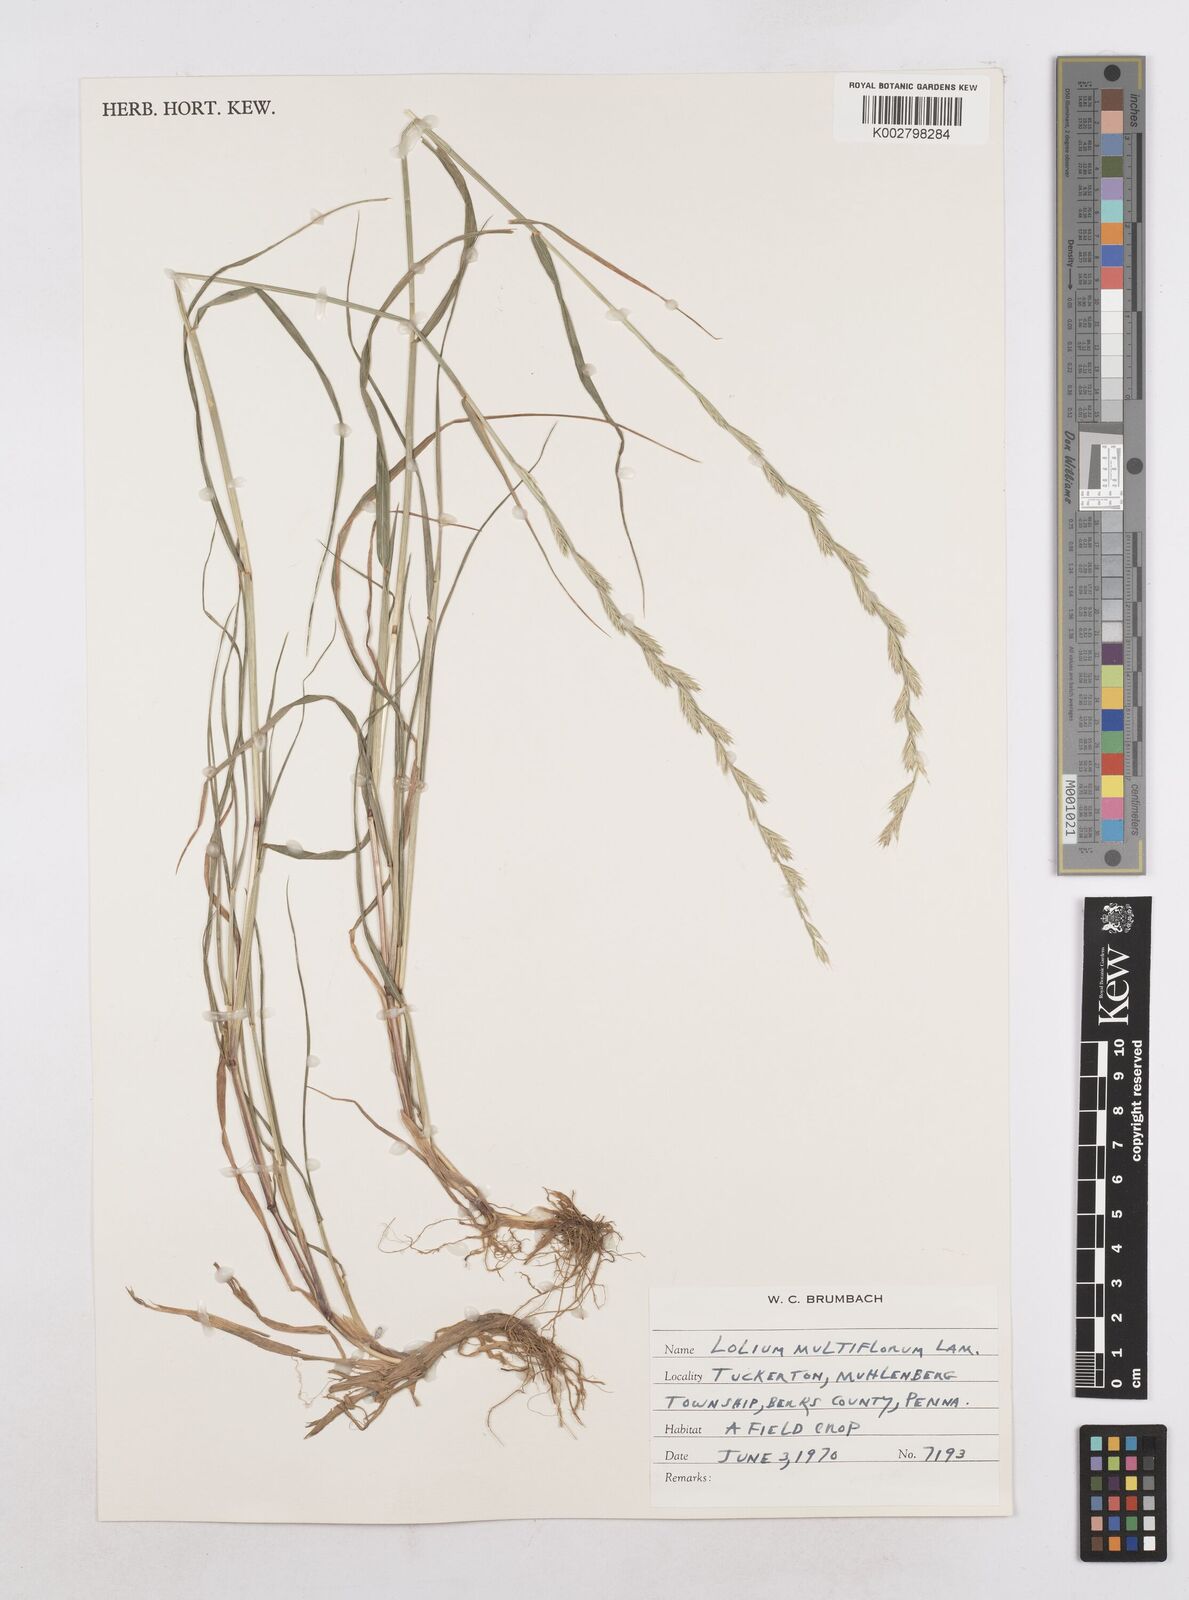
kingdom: Plantae
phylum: Tracheophyta
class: Liliopsida
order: Poales
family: Poaceae
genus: Lolium
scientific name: Lolium multiflorum
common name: Annual ryegrass
